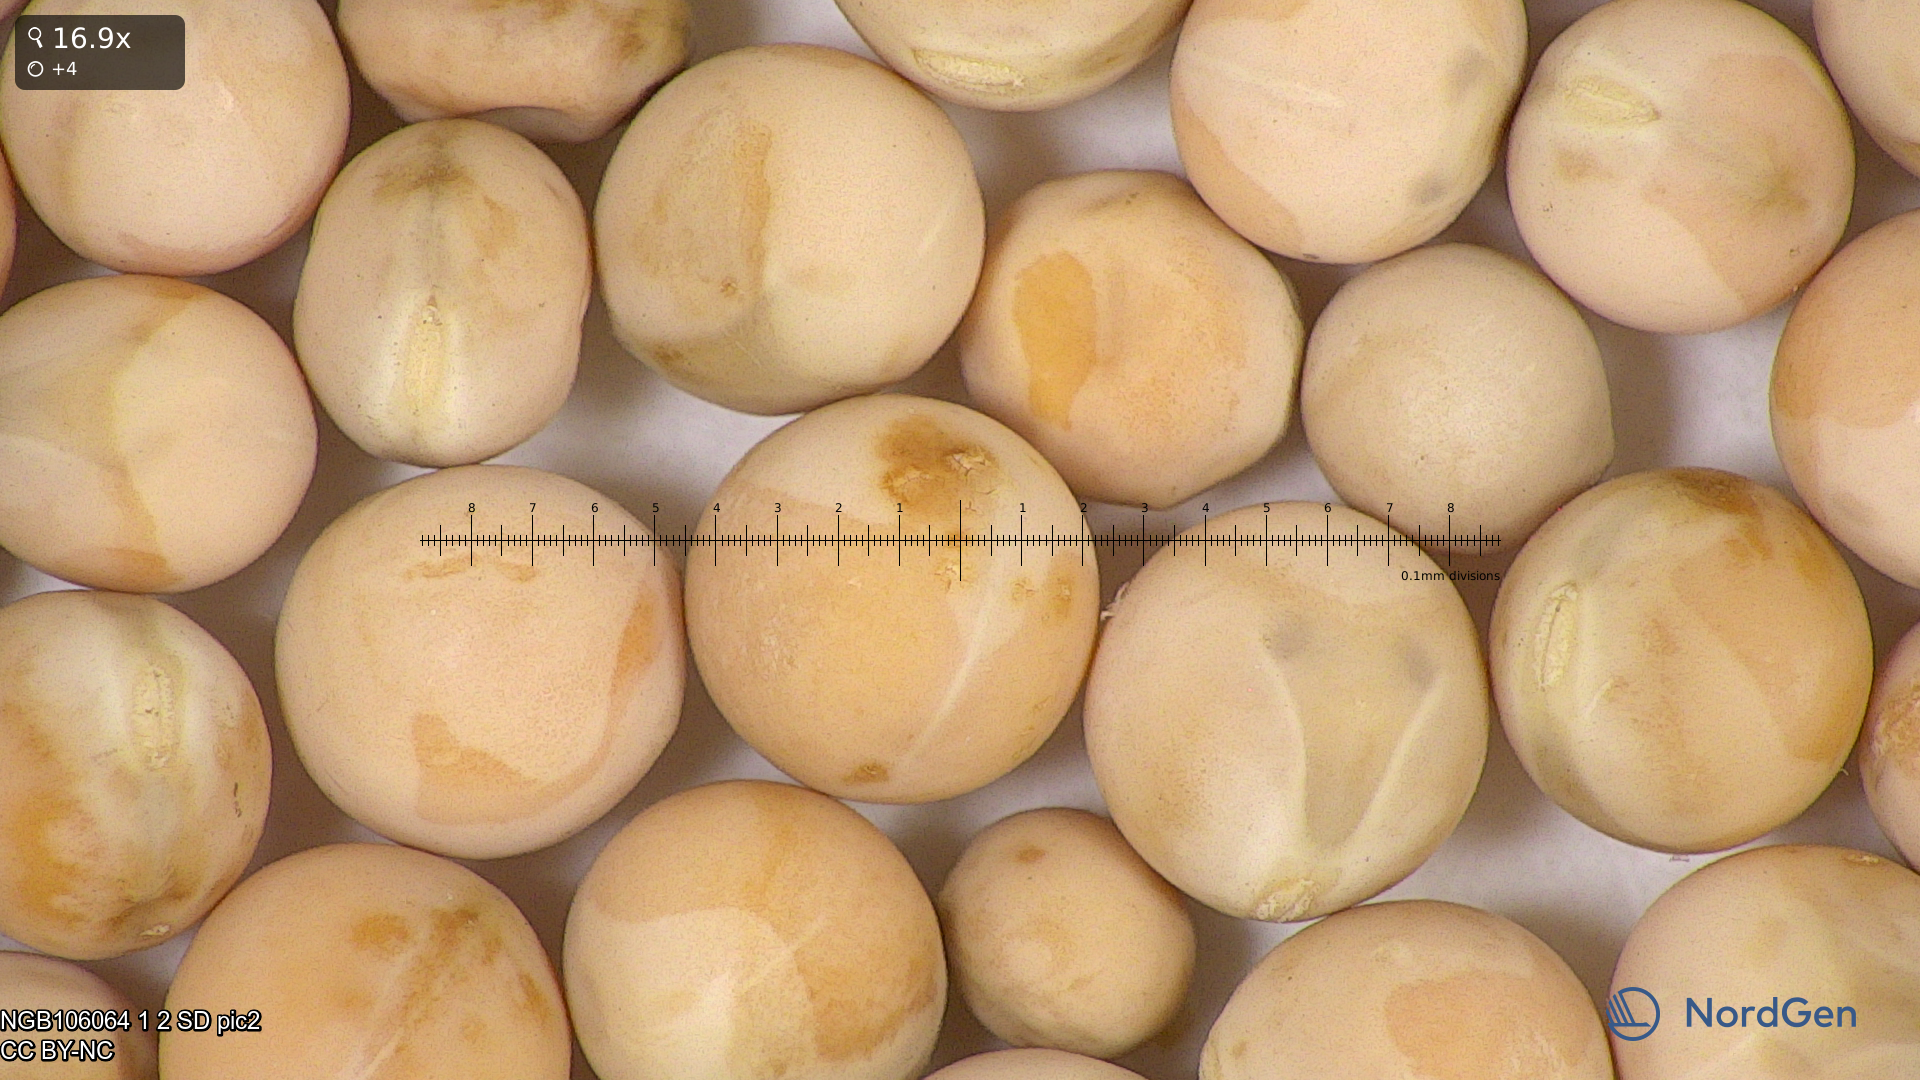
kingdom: Plantae
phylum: Tracheophyta
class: Magnoliopsida
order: Fabales
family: Fabaceae
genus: Lathyrus
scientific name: Lathyrus oleraceus
